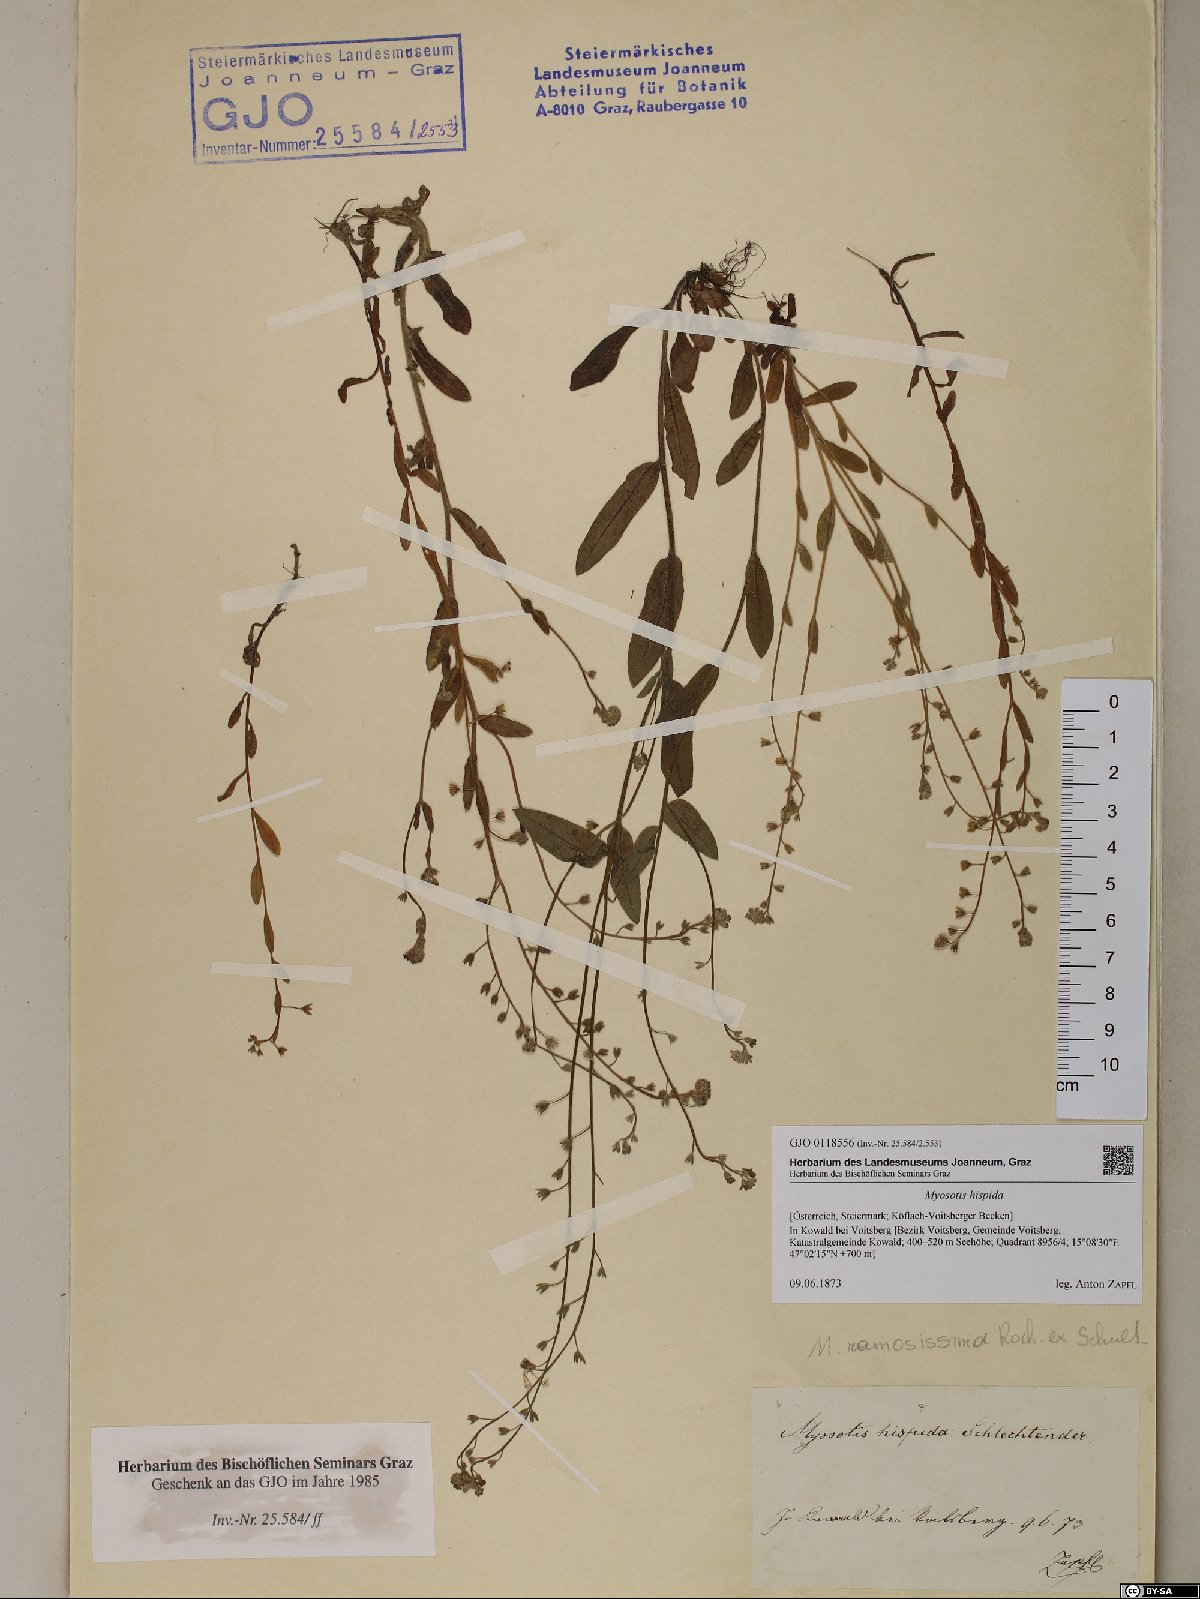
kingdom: Plantae
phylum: Tracheophyta
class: Magnoliopsida
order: Boraginales
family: Boraginaceae
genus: Myosotis
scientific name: Myosotis ramosissima
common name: Early forget-me-not
